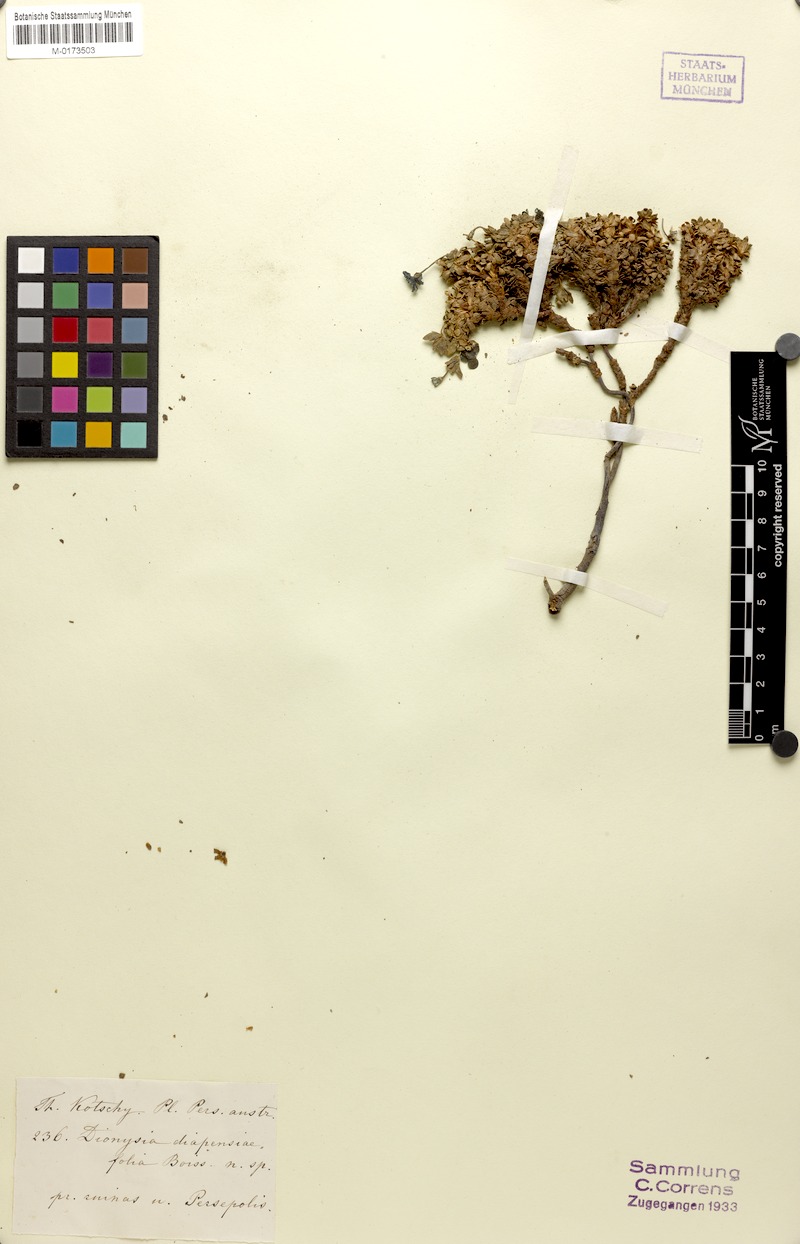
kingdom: Plantae
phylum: Tracheophyta
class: Magnoliopsida
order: Ericales
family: Primulaceae
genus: Dionysia
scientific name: Dionysia diapensiifolia
